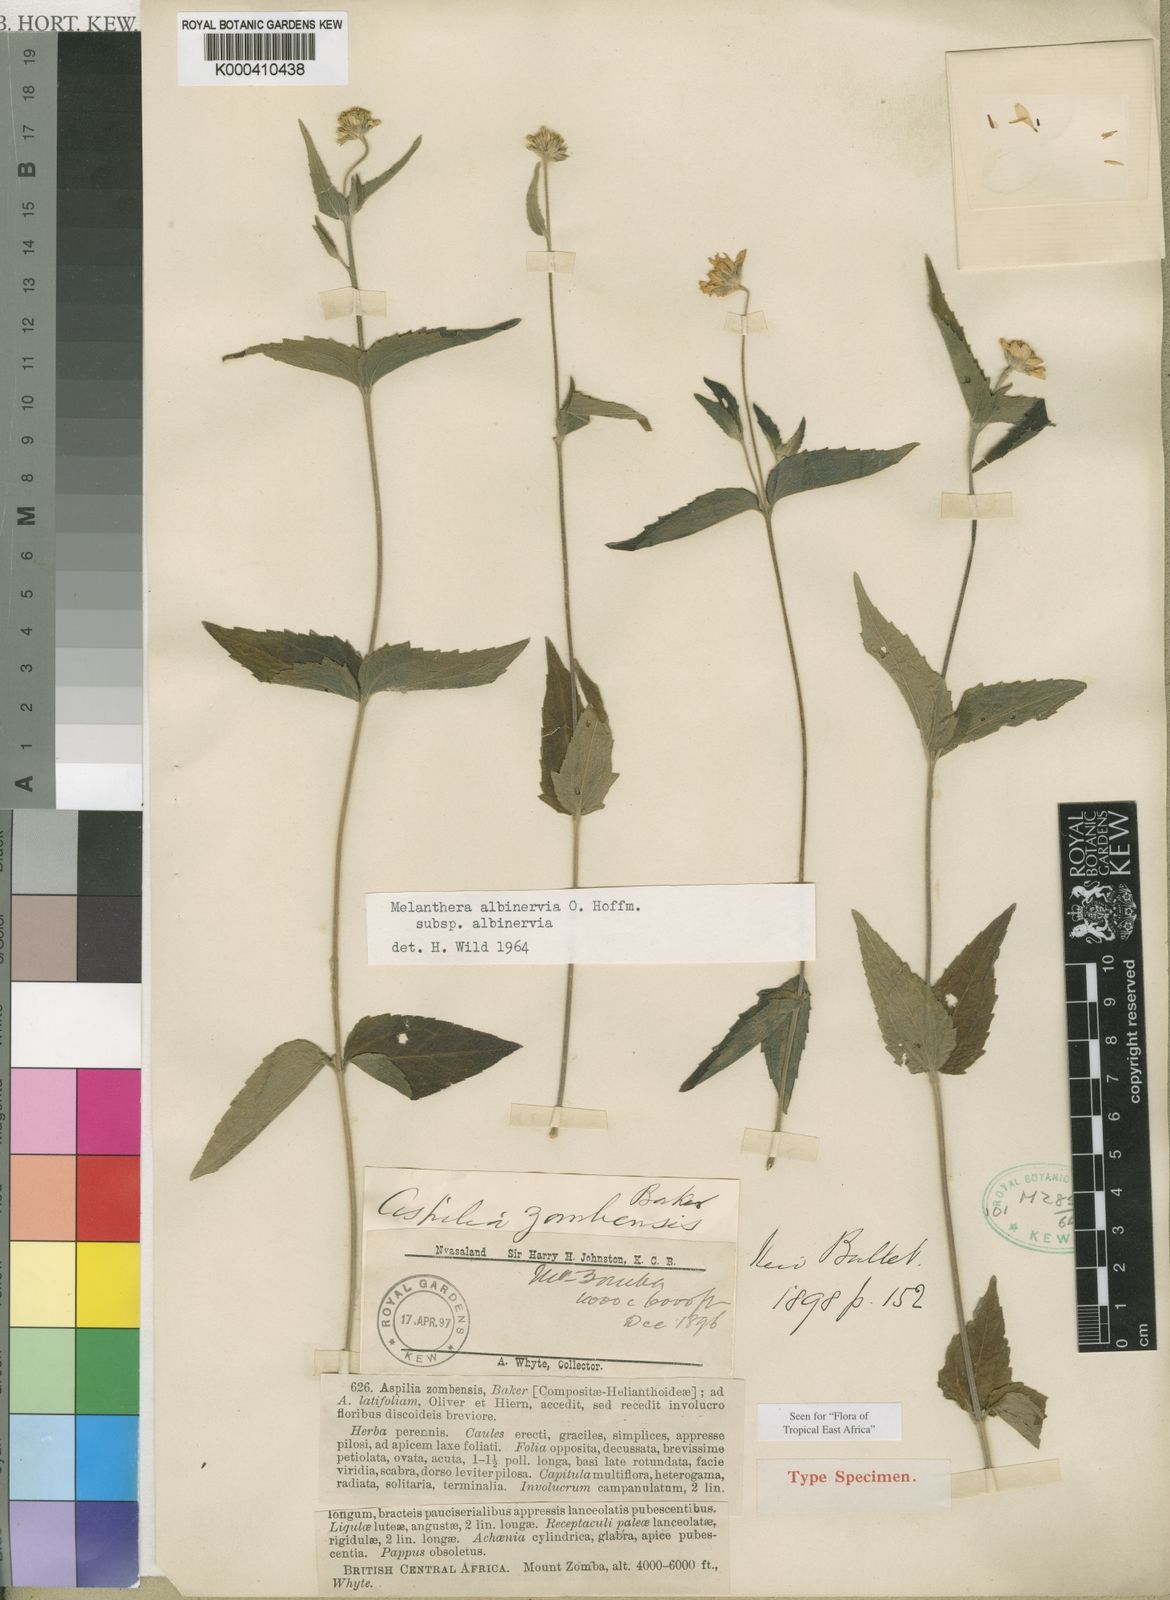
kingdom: Plantae
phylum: Tracheophyta
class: Magnoliopsida
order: Asterales
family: Asteraceae
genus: Lipotriche
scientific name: Lipotriche pungens
